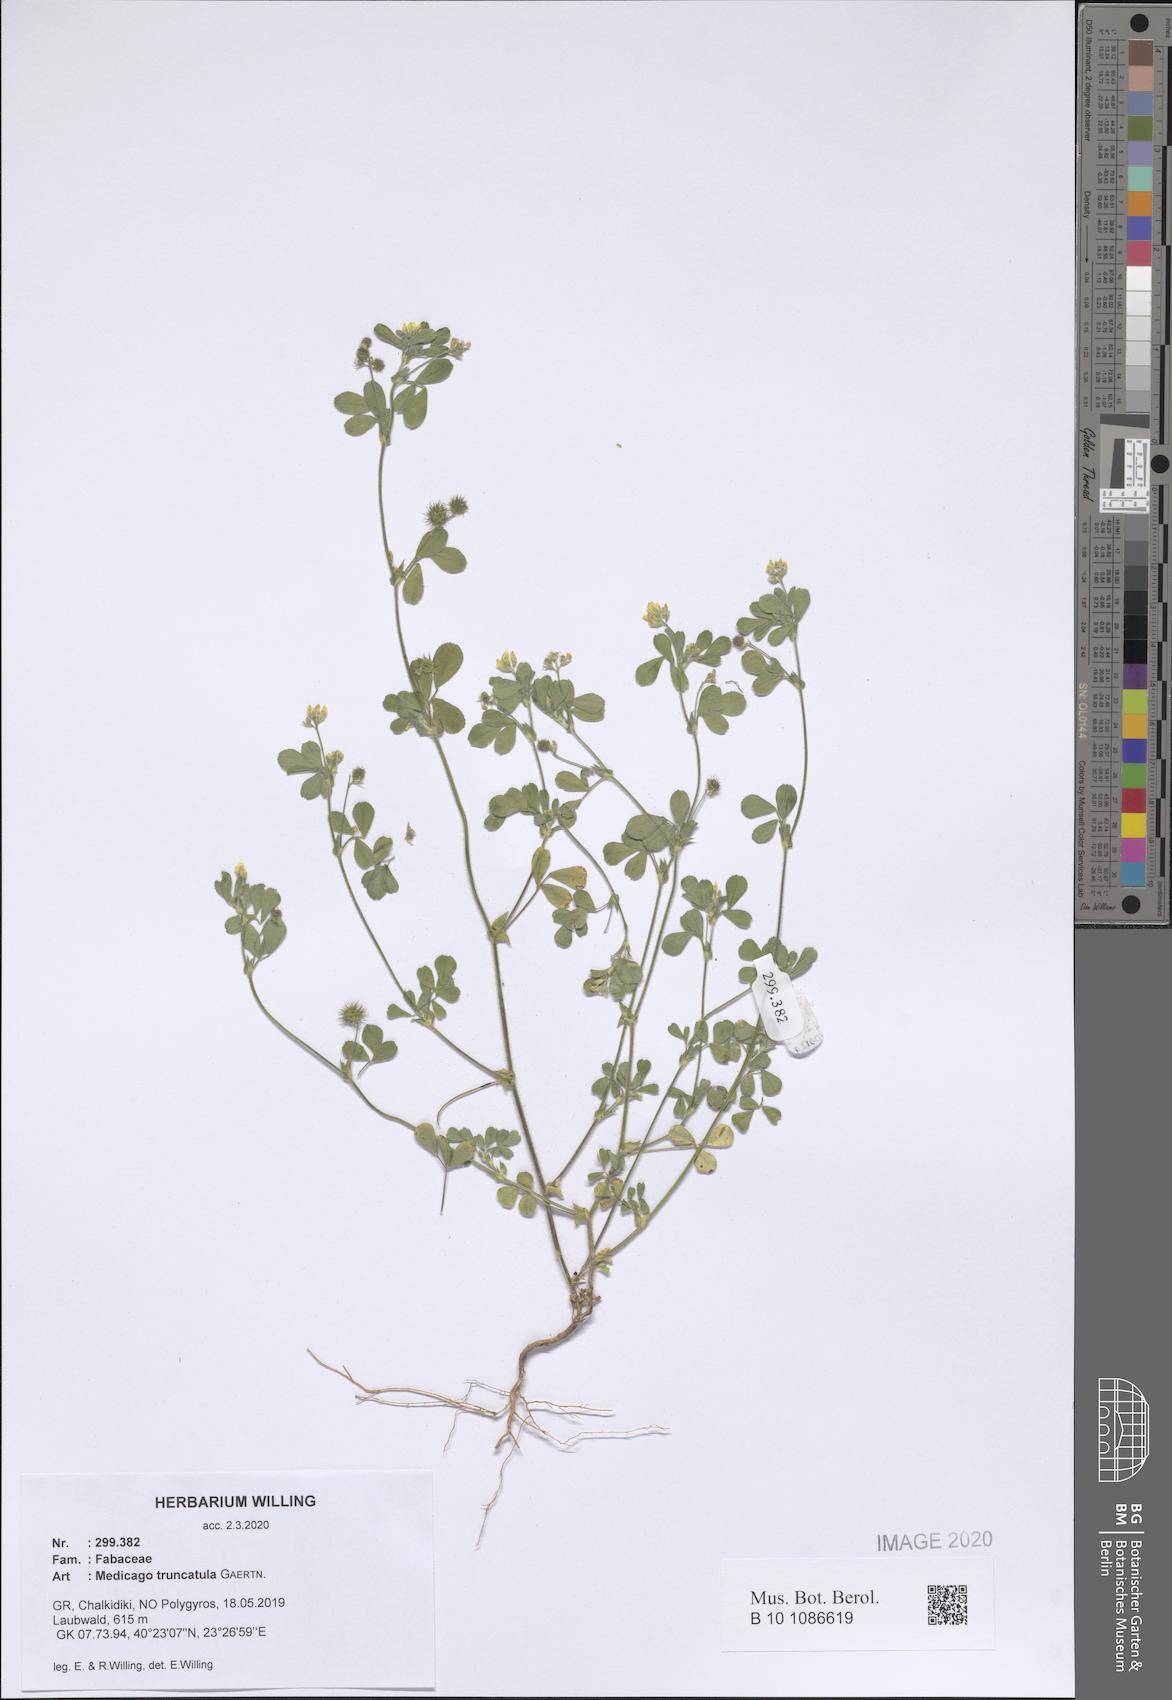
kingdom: Plantae
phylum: Tracheophyta
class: Magnoliopsida
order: Fabales
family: Fabaceae
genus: Medicago
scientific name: Medicago truncatula
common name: Strong-spined medick
